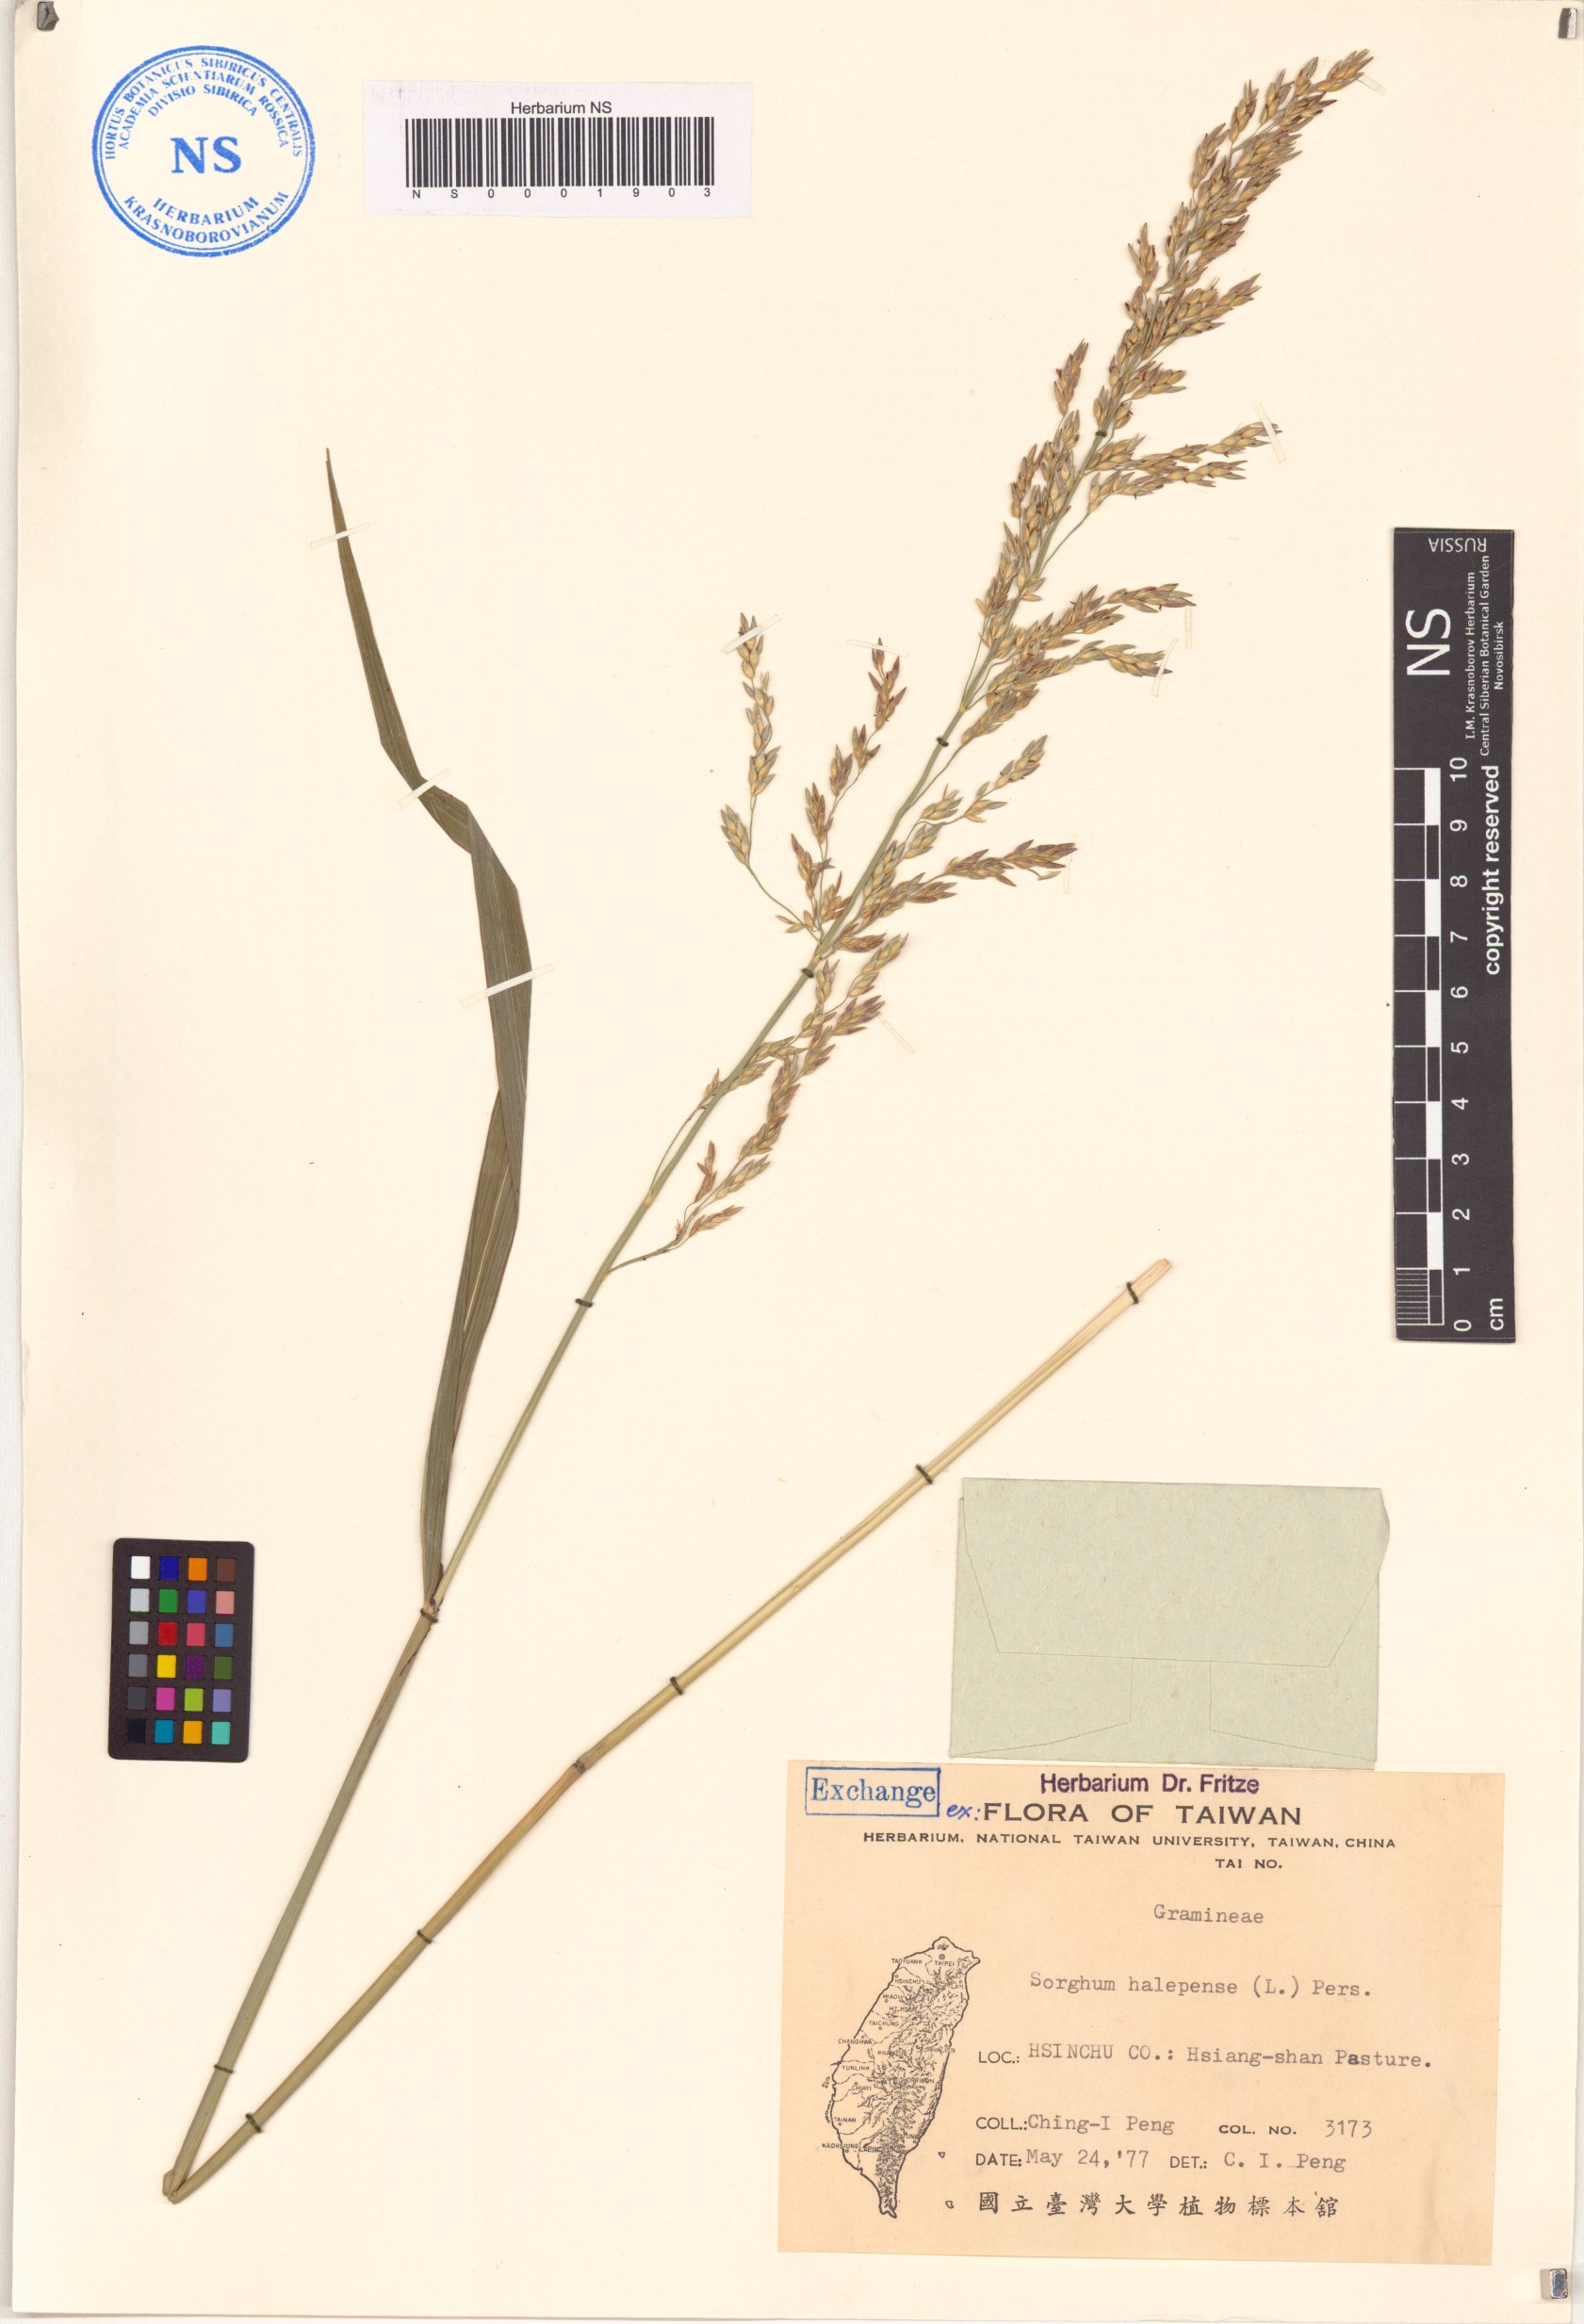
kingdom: Plantae
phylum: Tracheophyta
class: Liliopsida
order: Poales
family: Poaceae
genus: Sorghum
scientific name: Sorghum halepense
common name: Johnson-grass
